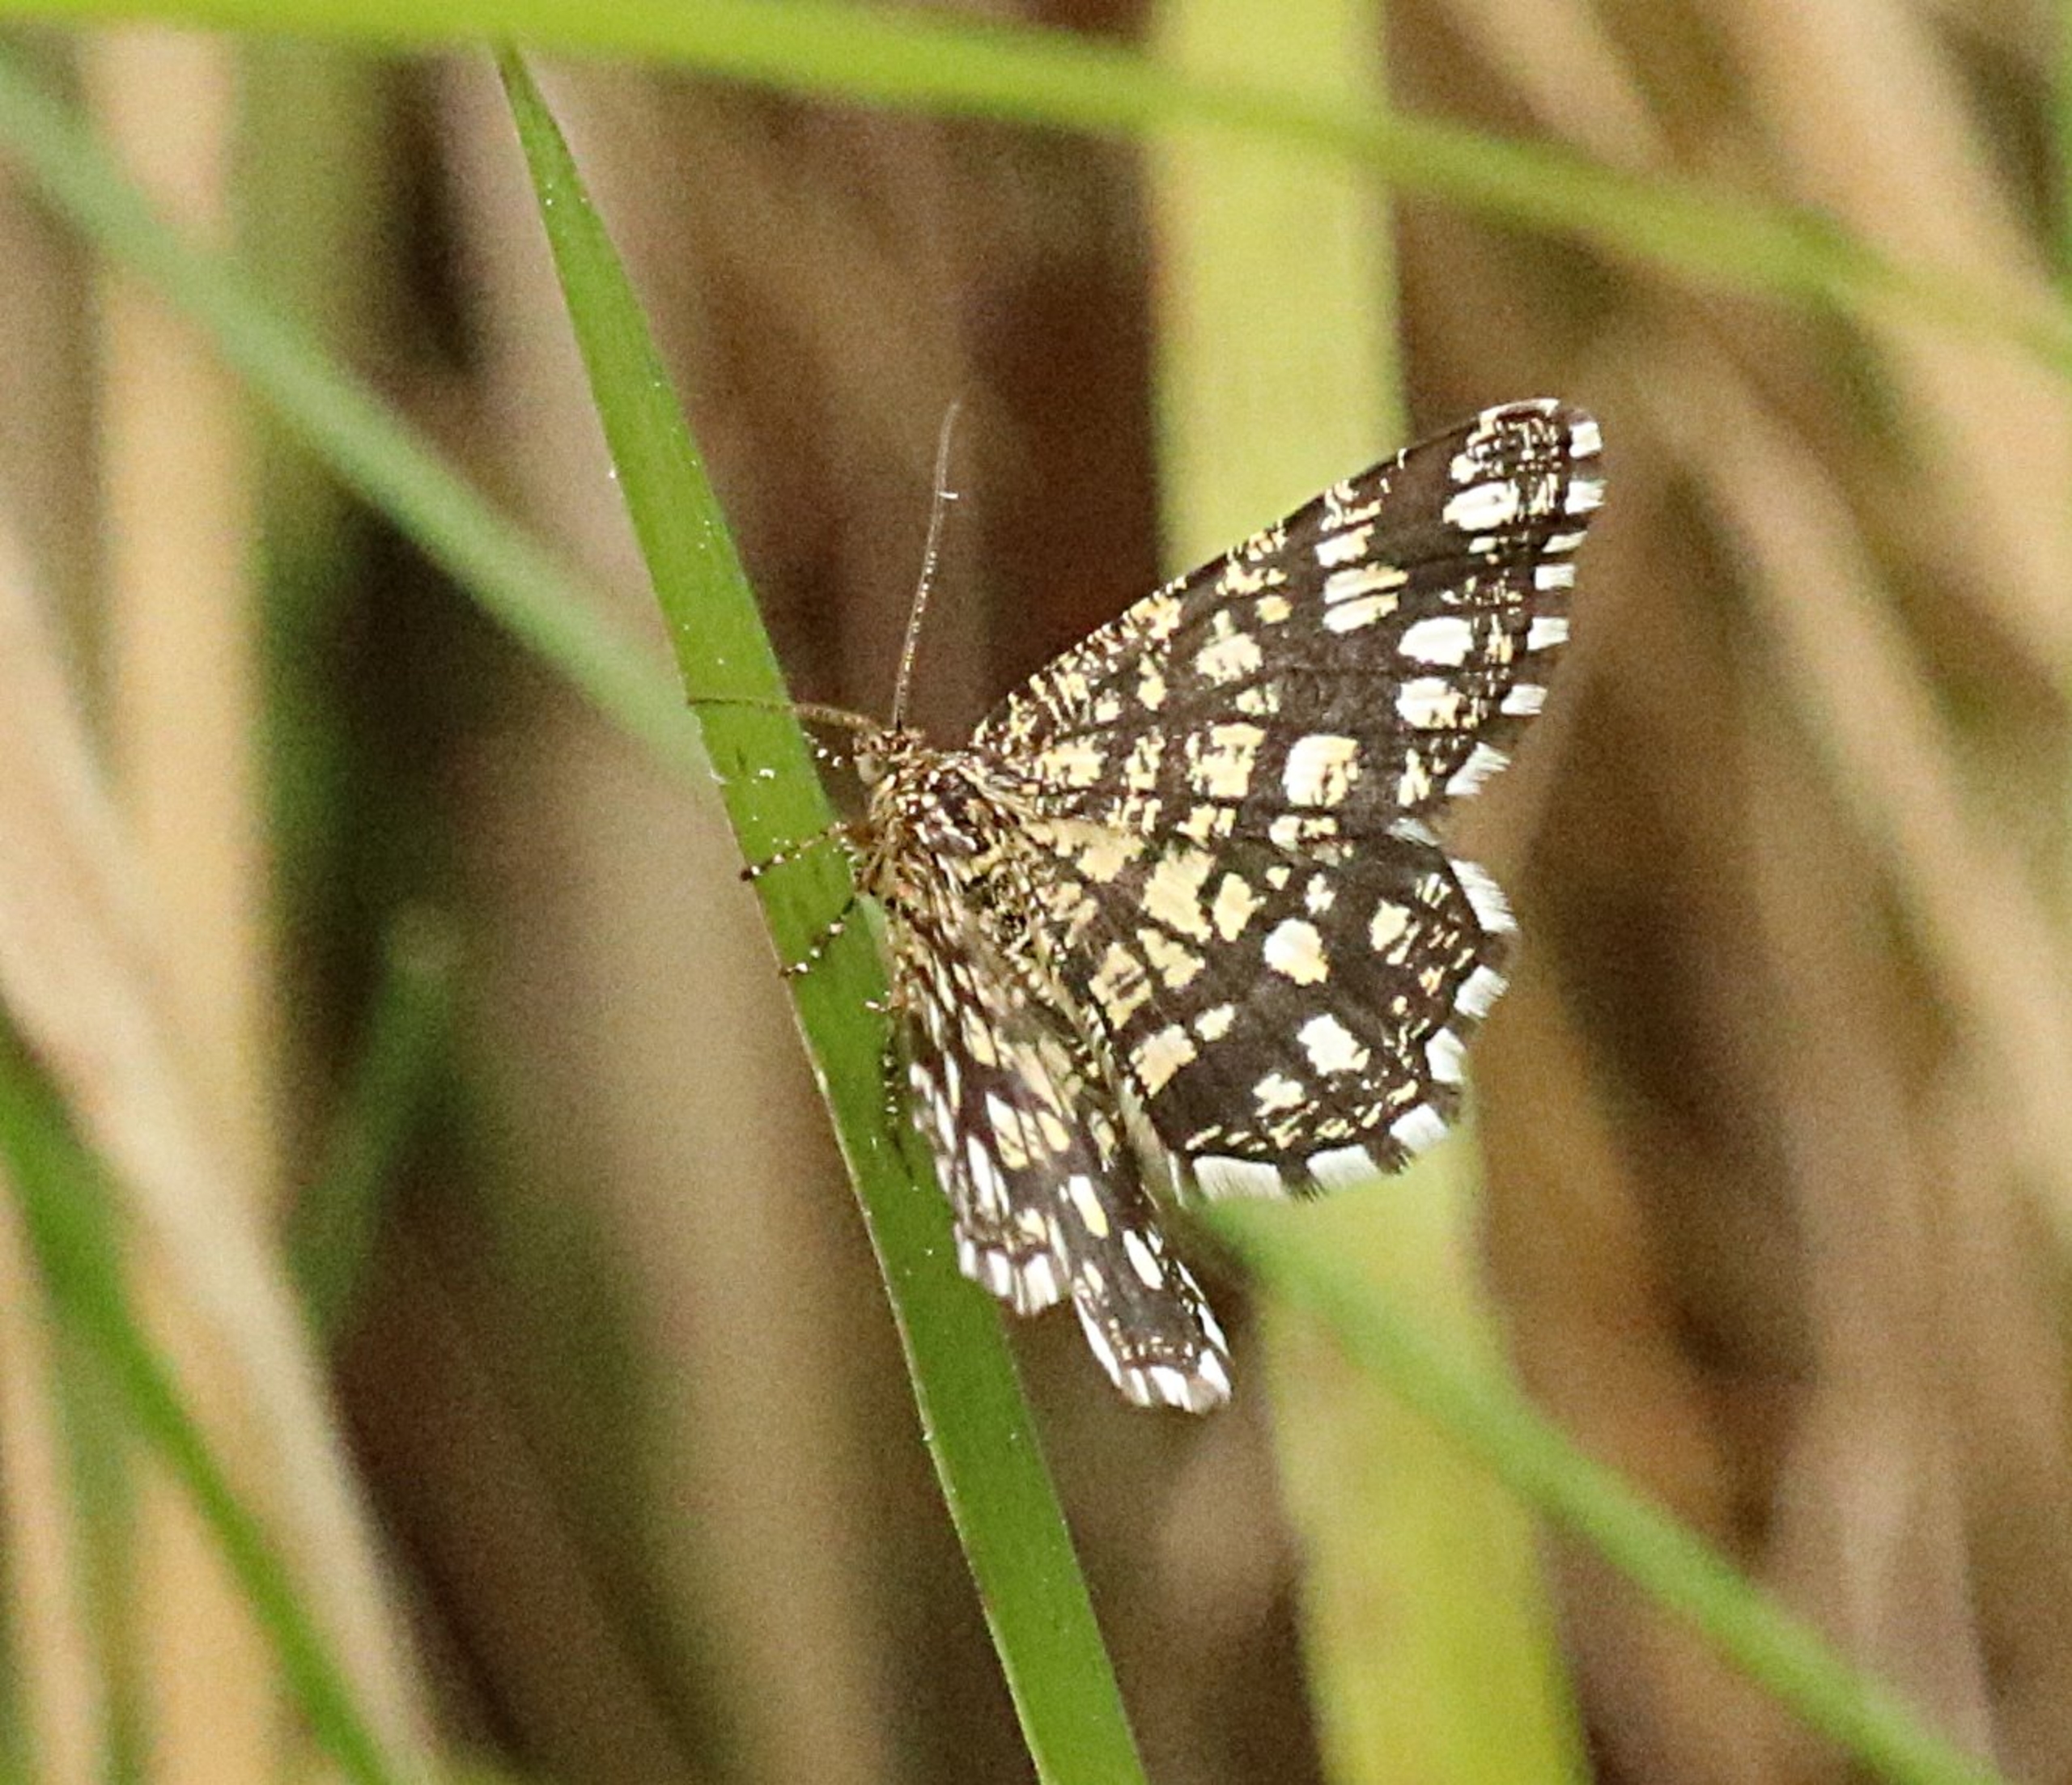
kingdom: Animalia
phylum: Arthropoda
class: Insecta
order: Lepidoptera
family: Geometridae
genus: Chiasmia
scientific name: Chiasmia clathrata
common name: Kløvermåler
